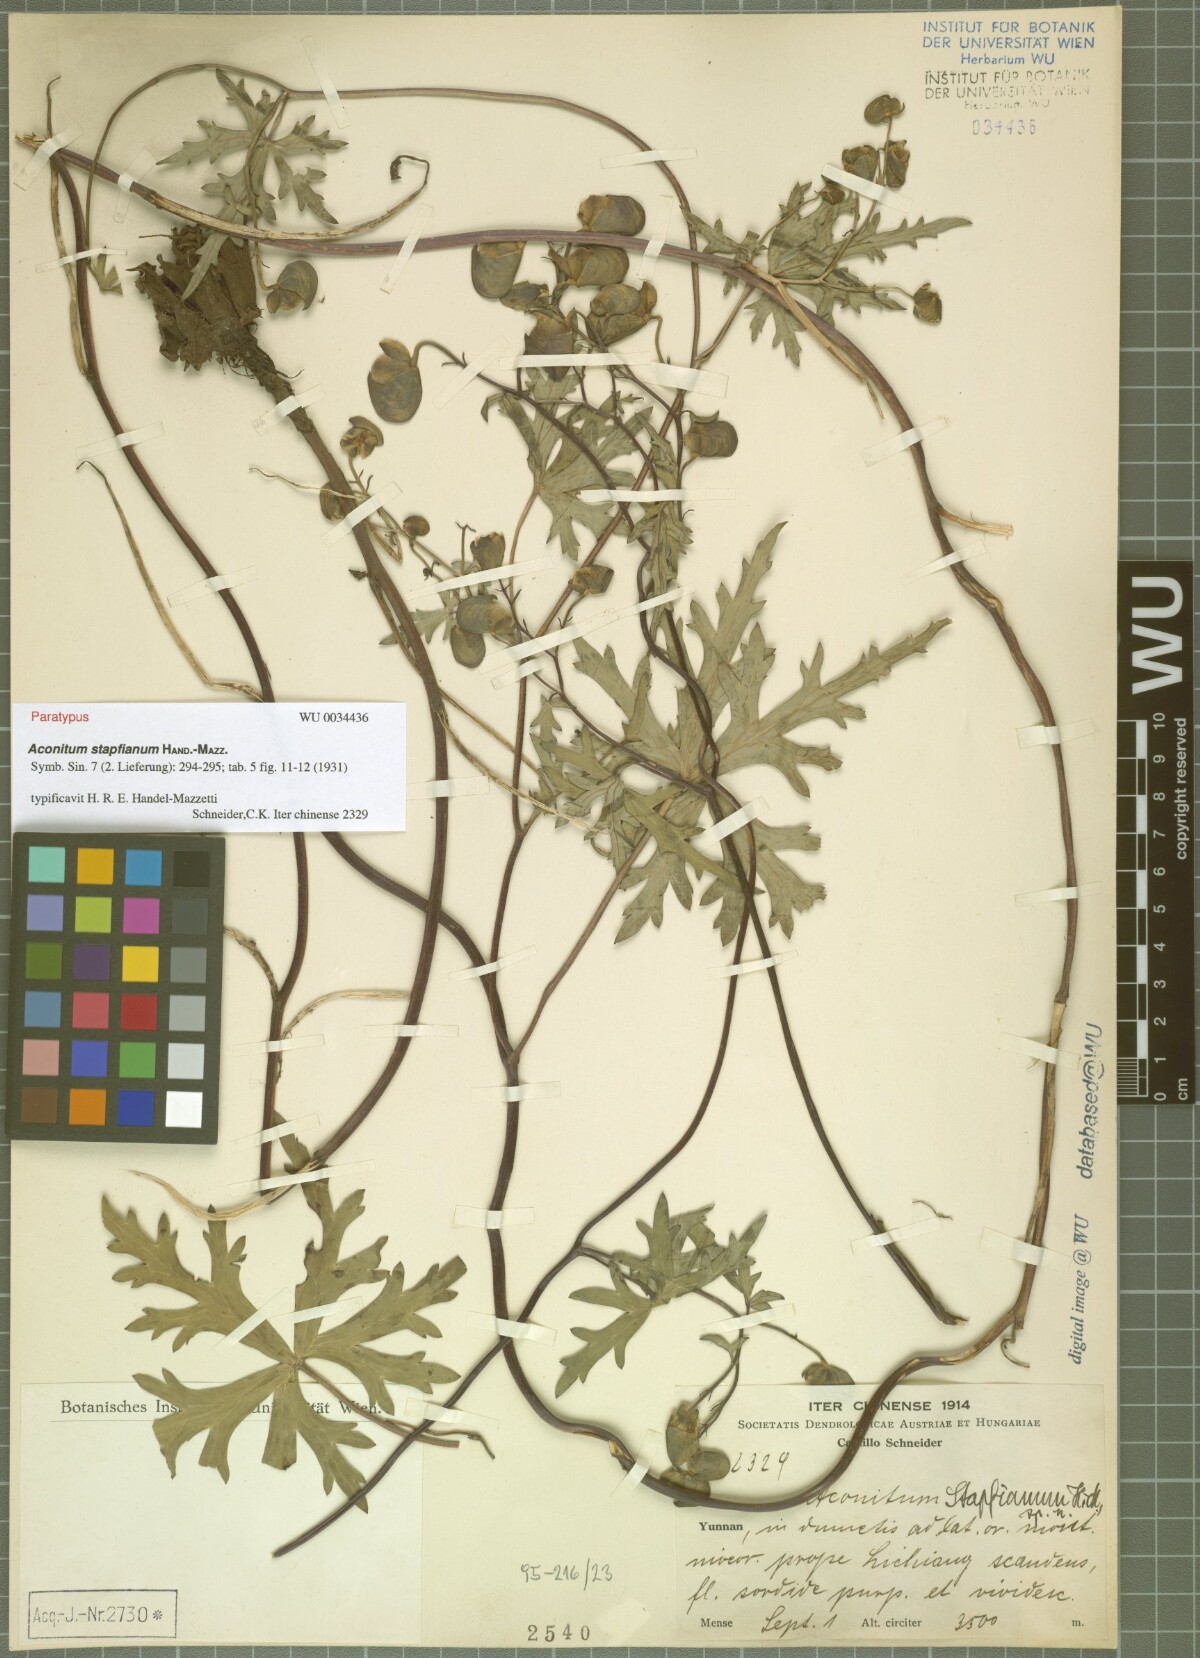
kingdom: Plantae
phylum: Tracheophyta
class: Magnoliopsida
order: Ranunculales
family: Ranunculaceae
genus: Aconitum
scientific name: Aconitum stapfianum
